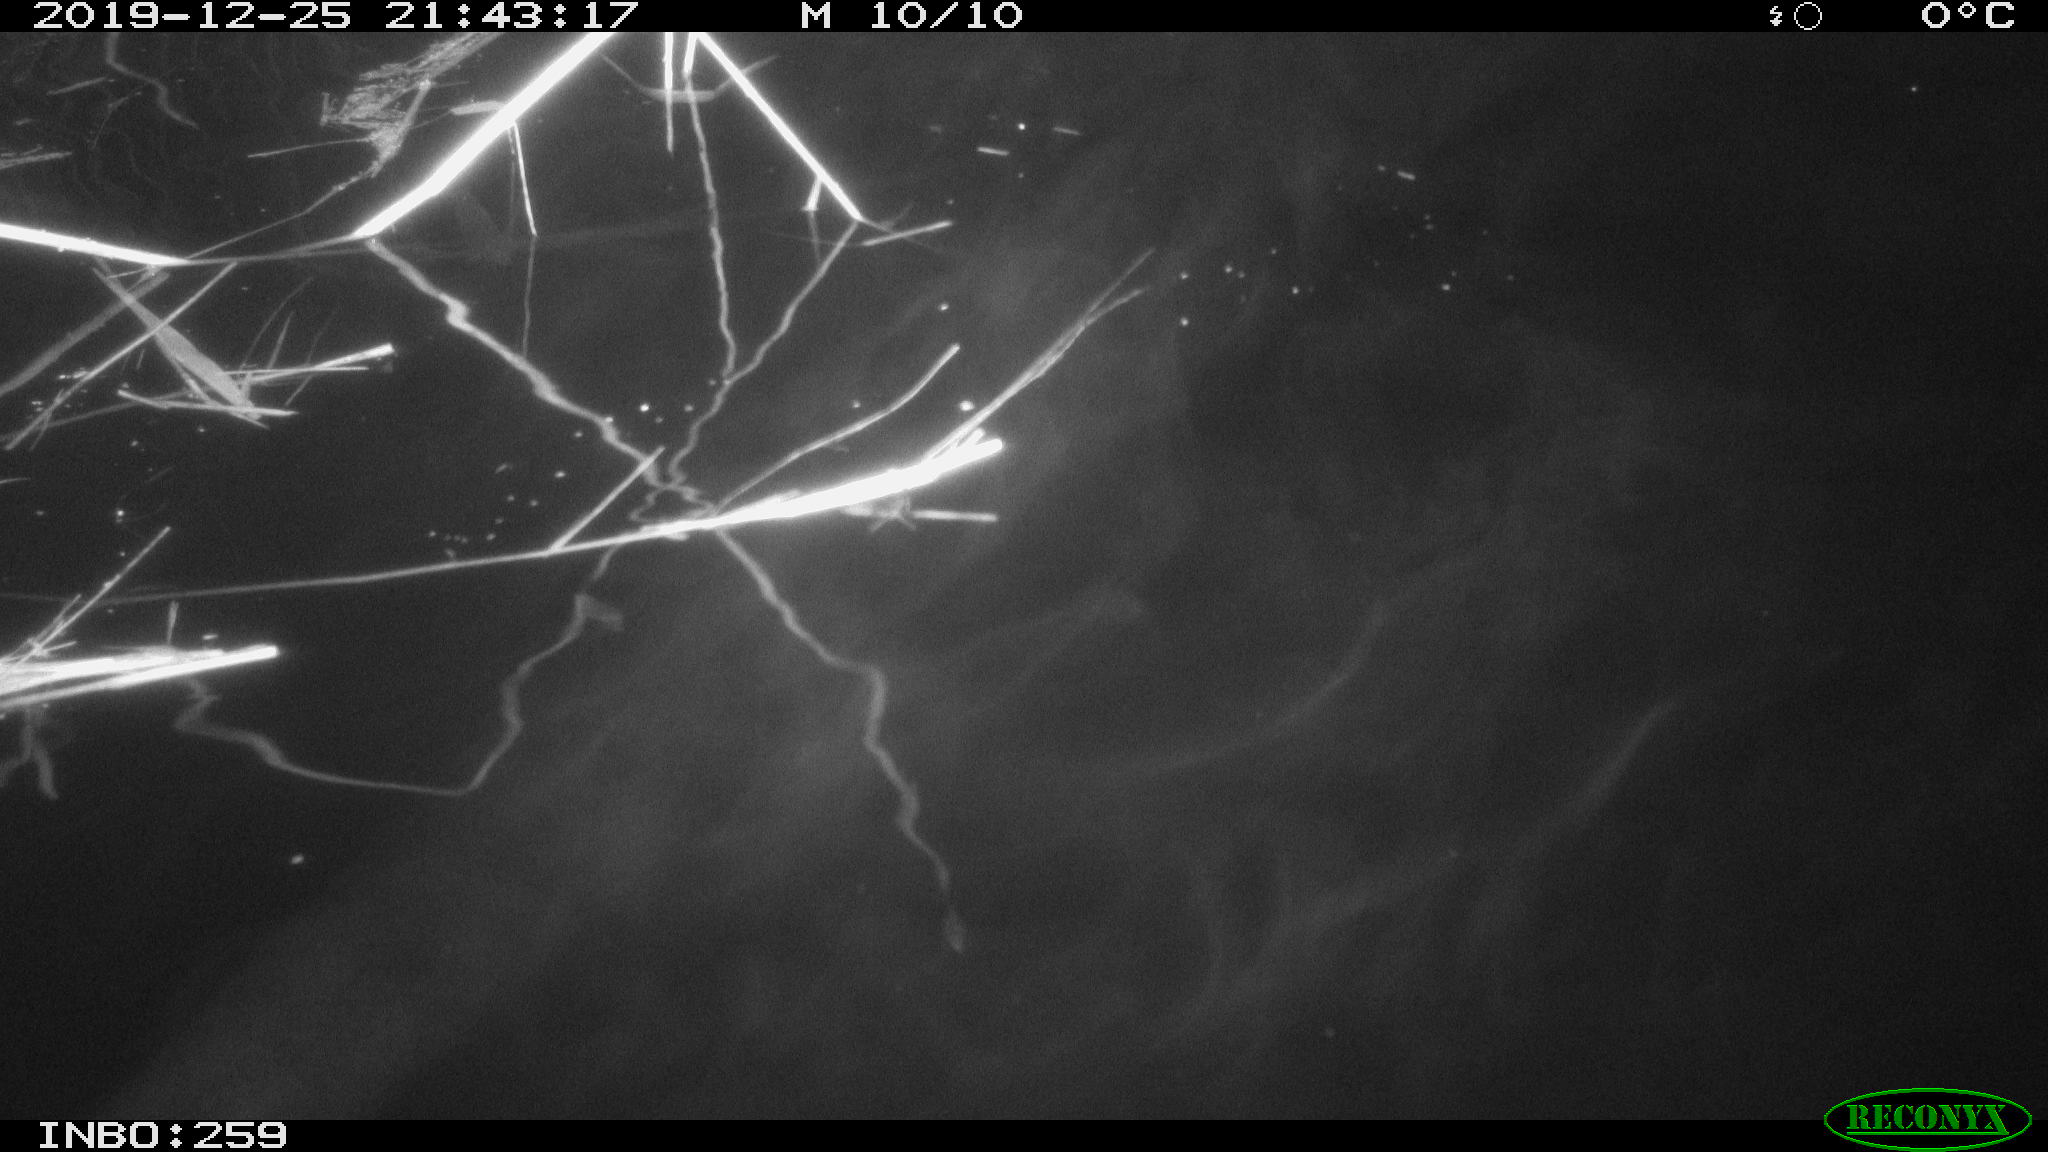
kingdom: Animalia
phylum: Chordata
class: Mammalia
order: Rodentia
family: Cricetidae
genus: Ondatra
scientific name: Ondatra zibethicus
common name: Muskrat
